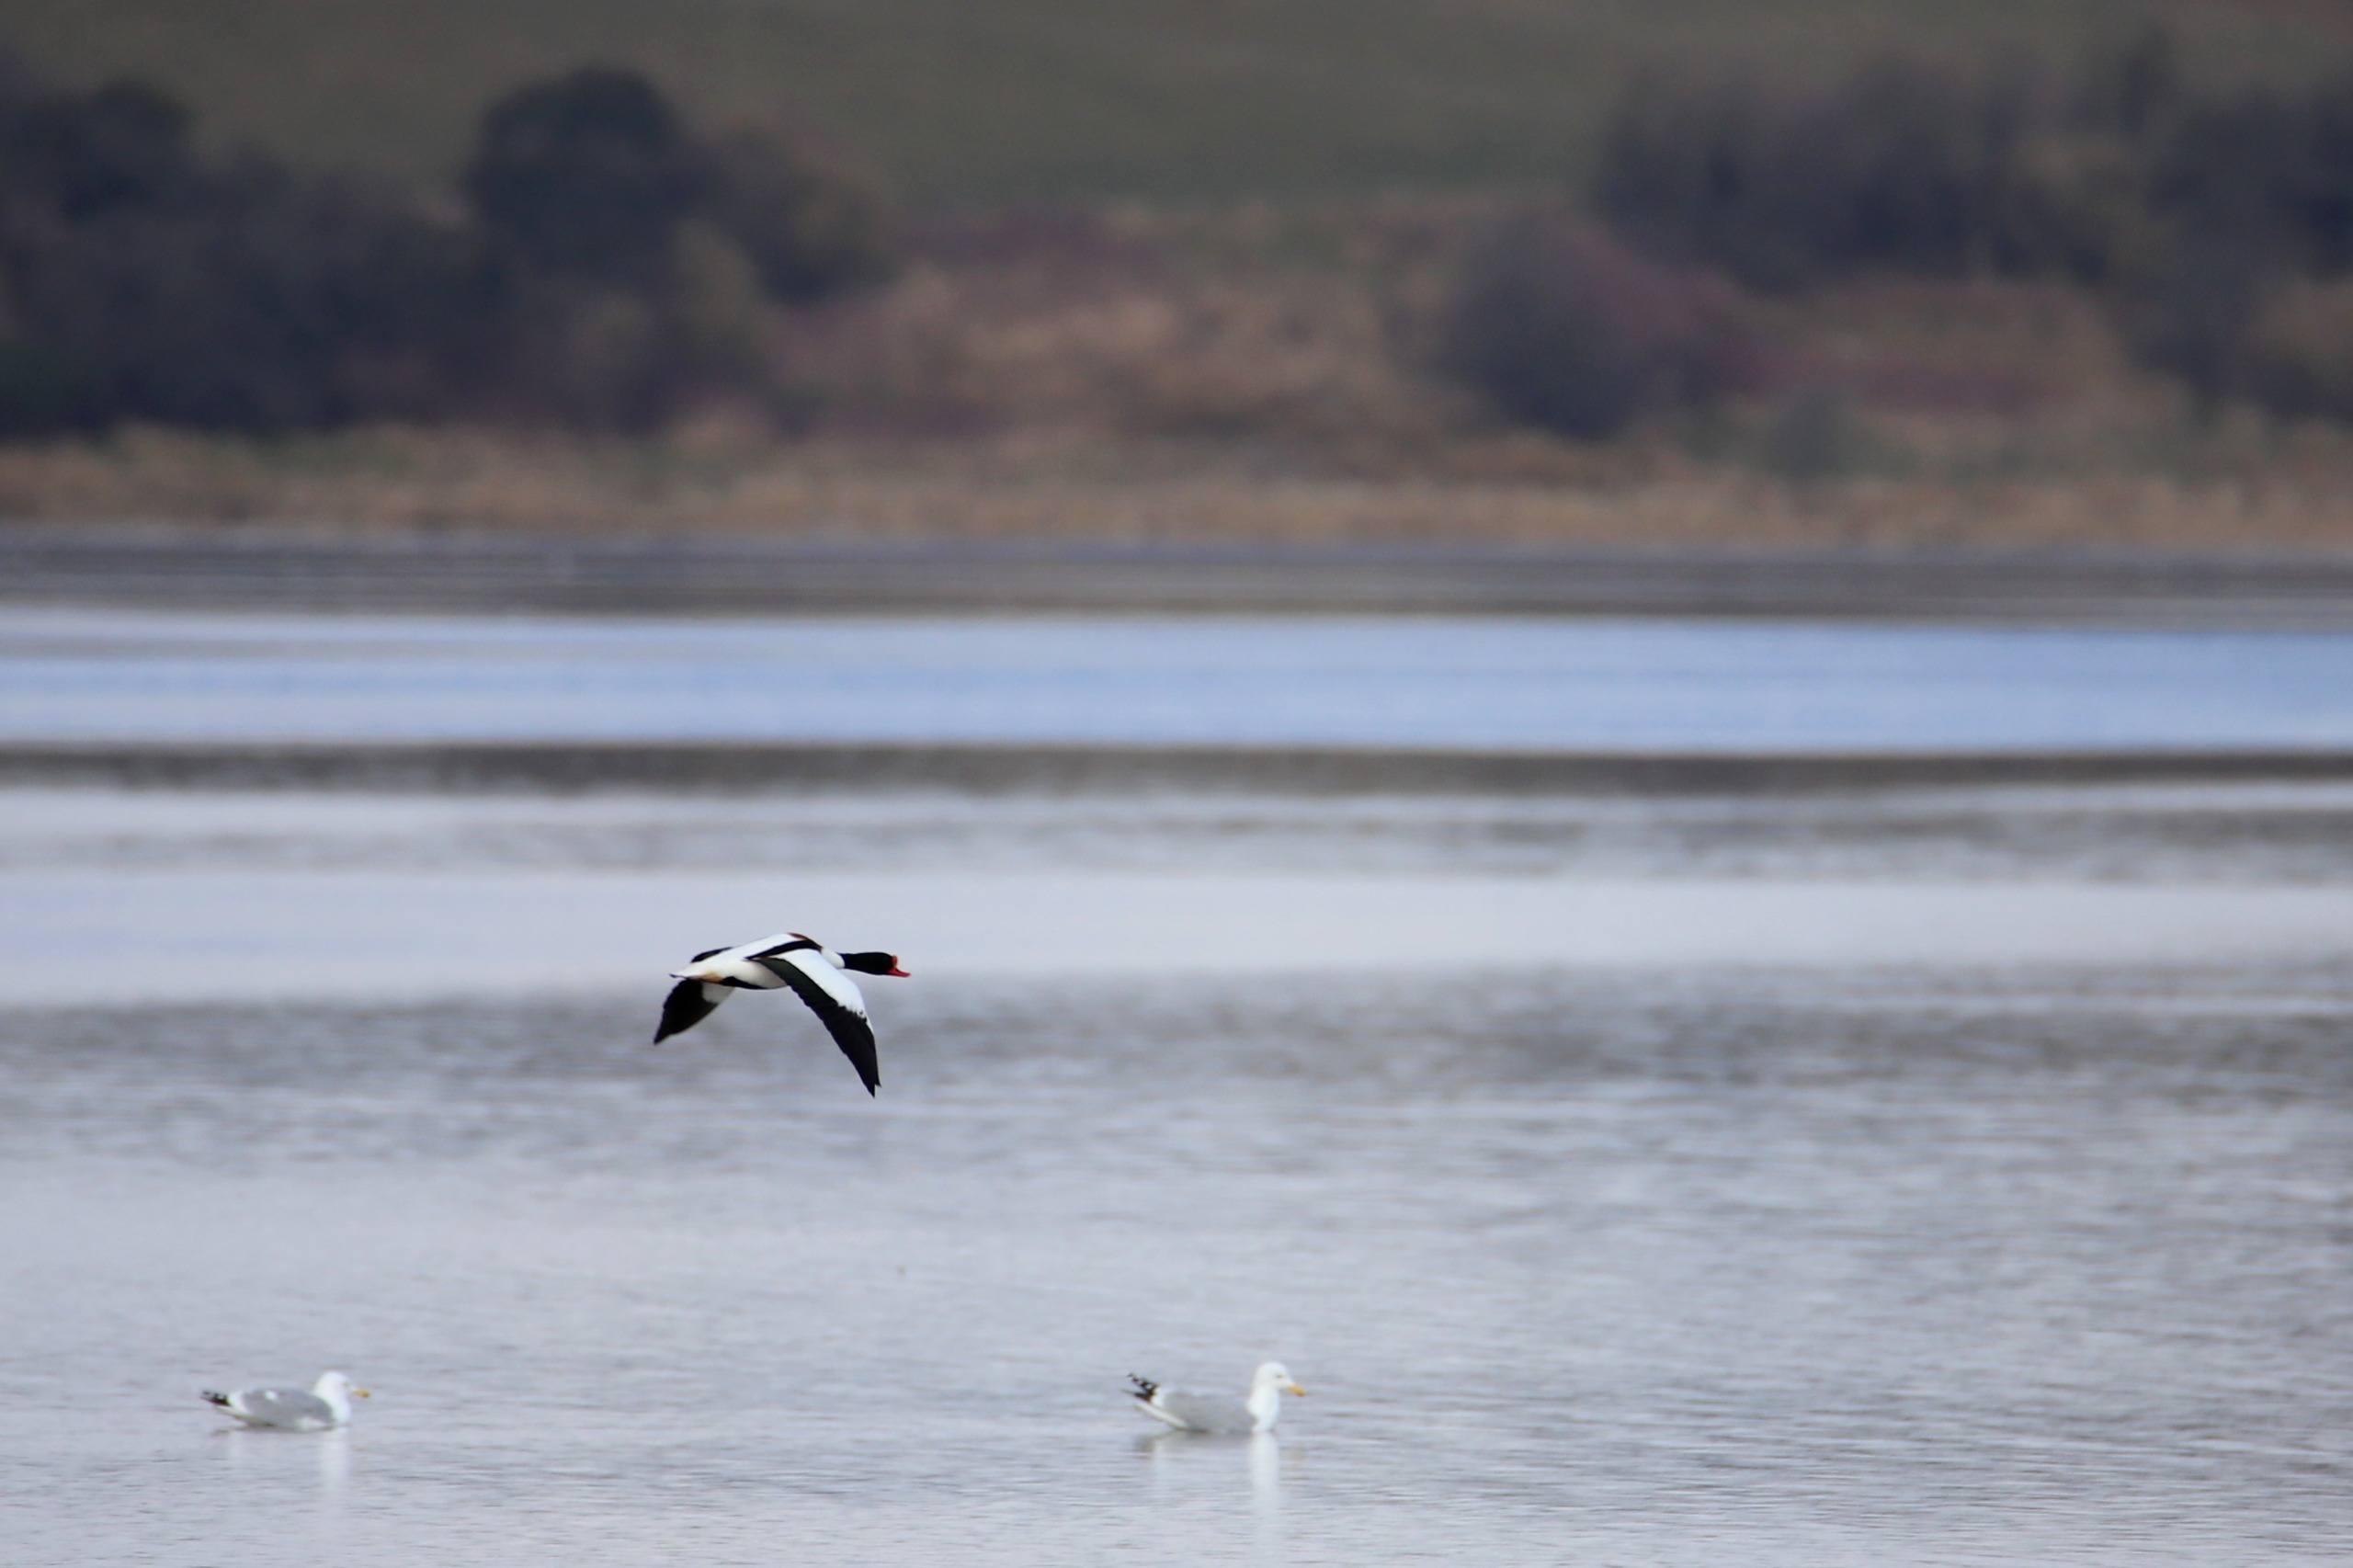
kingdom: Animalia
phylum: Chordata
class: Aves
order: Anseriformes
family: Anatidae
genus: Tadorna
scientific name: Tadorna tadorna
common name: Gravand
